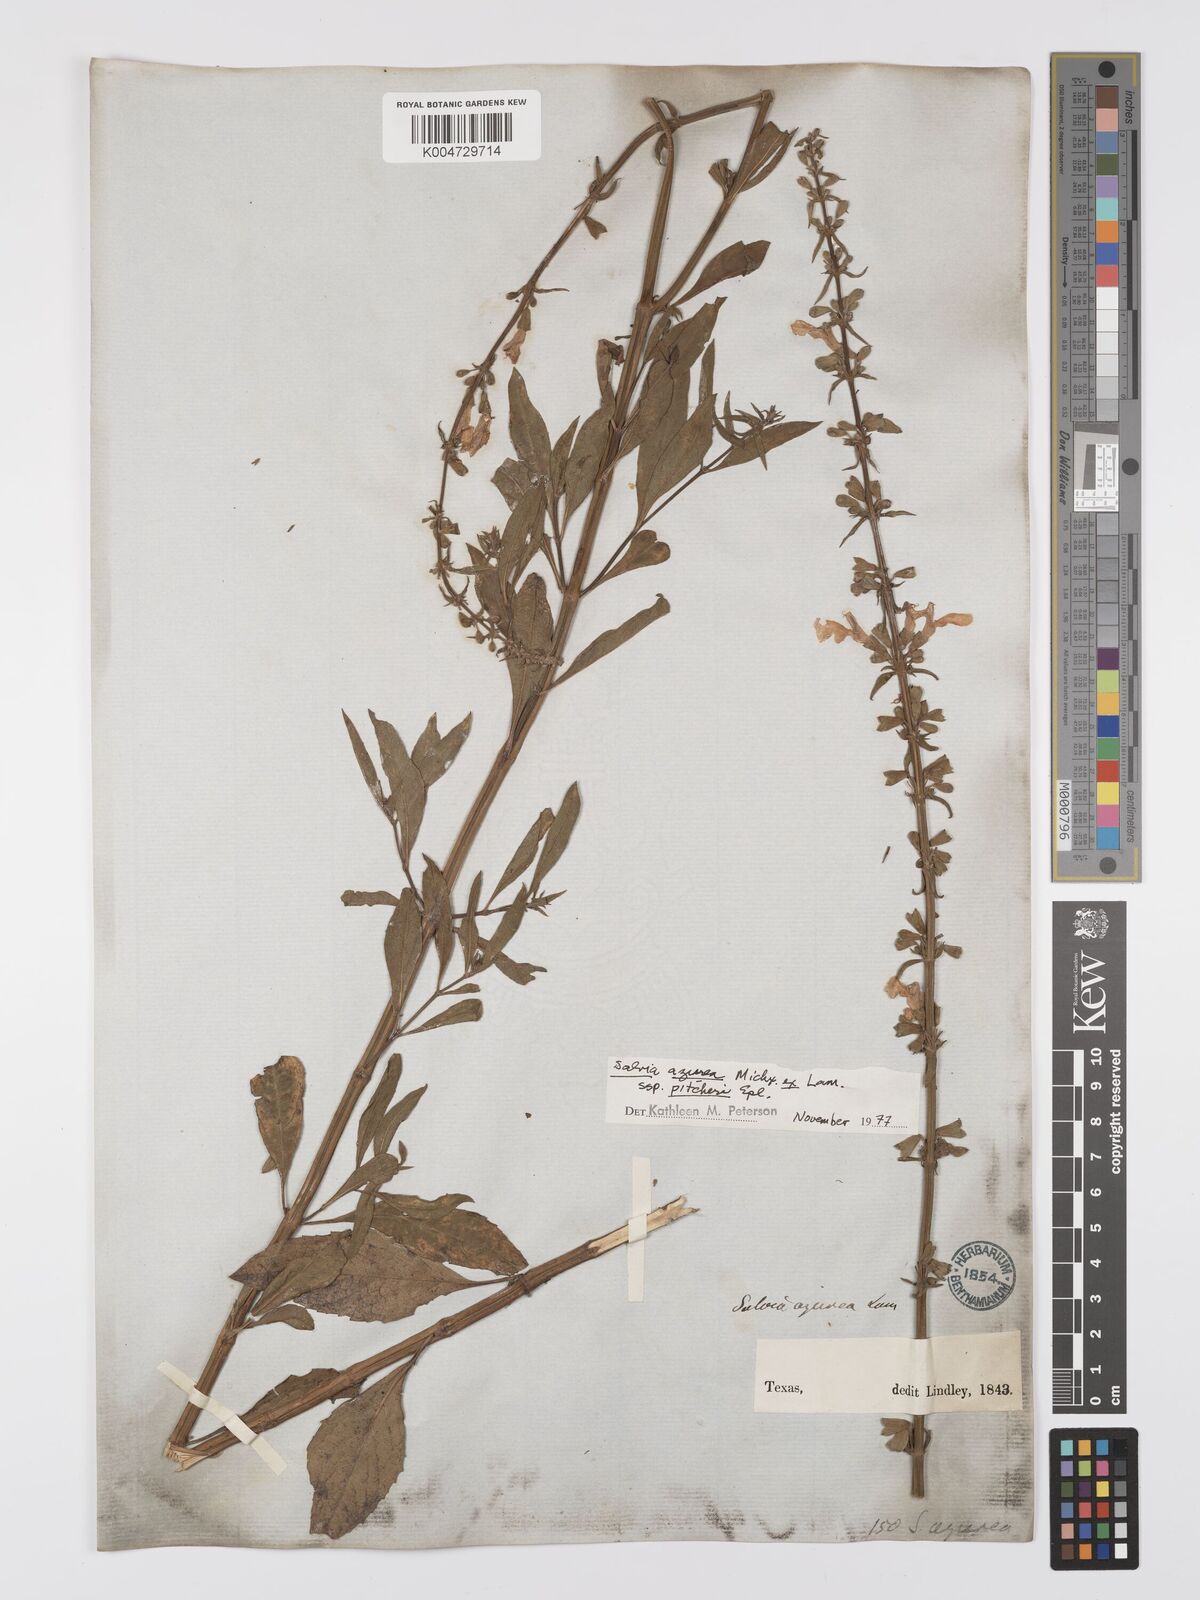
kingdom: Plantae
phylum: Tracheophyta
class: Magnoliopsida
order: Lamiales
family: Lamiaceae
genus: Salvia
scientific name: Salvia azurea
